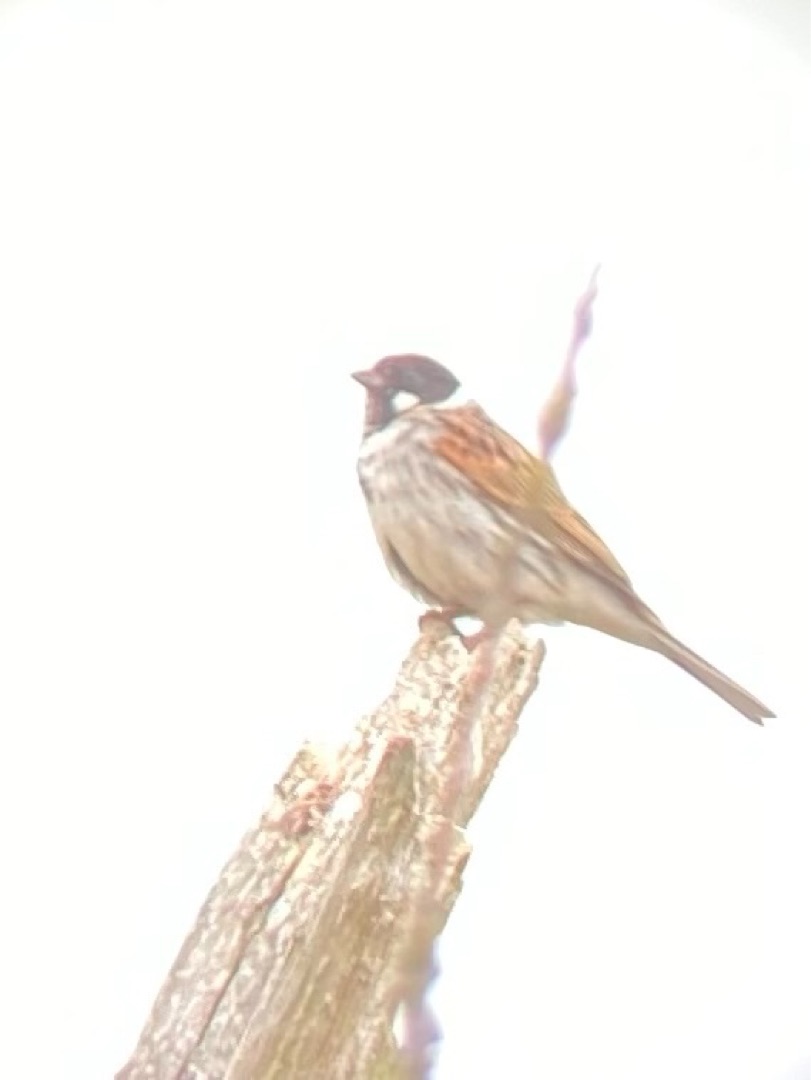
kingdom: Animalia
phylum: Chordata
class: Aves
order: Passeriformes
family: Emberizidae
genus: Emberiza
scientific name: Emberiza schoeniclus
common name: Rørspurv
